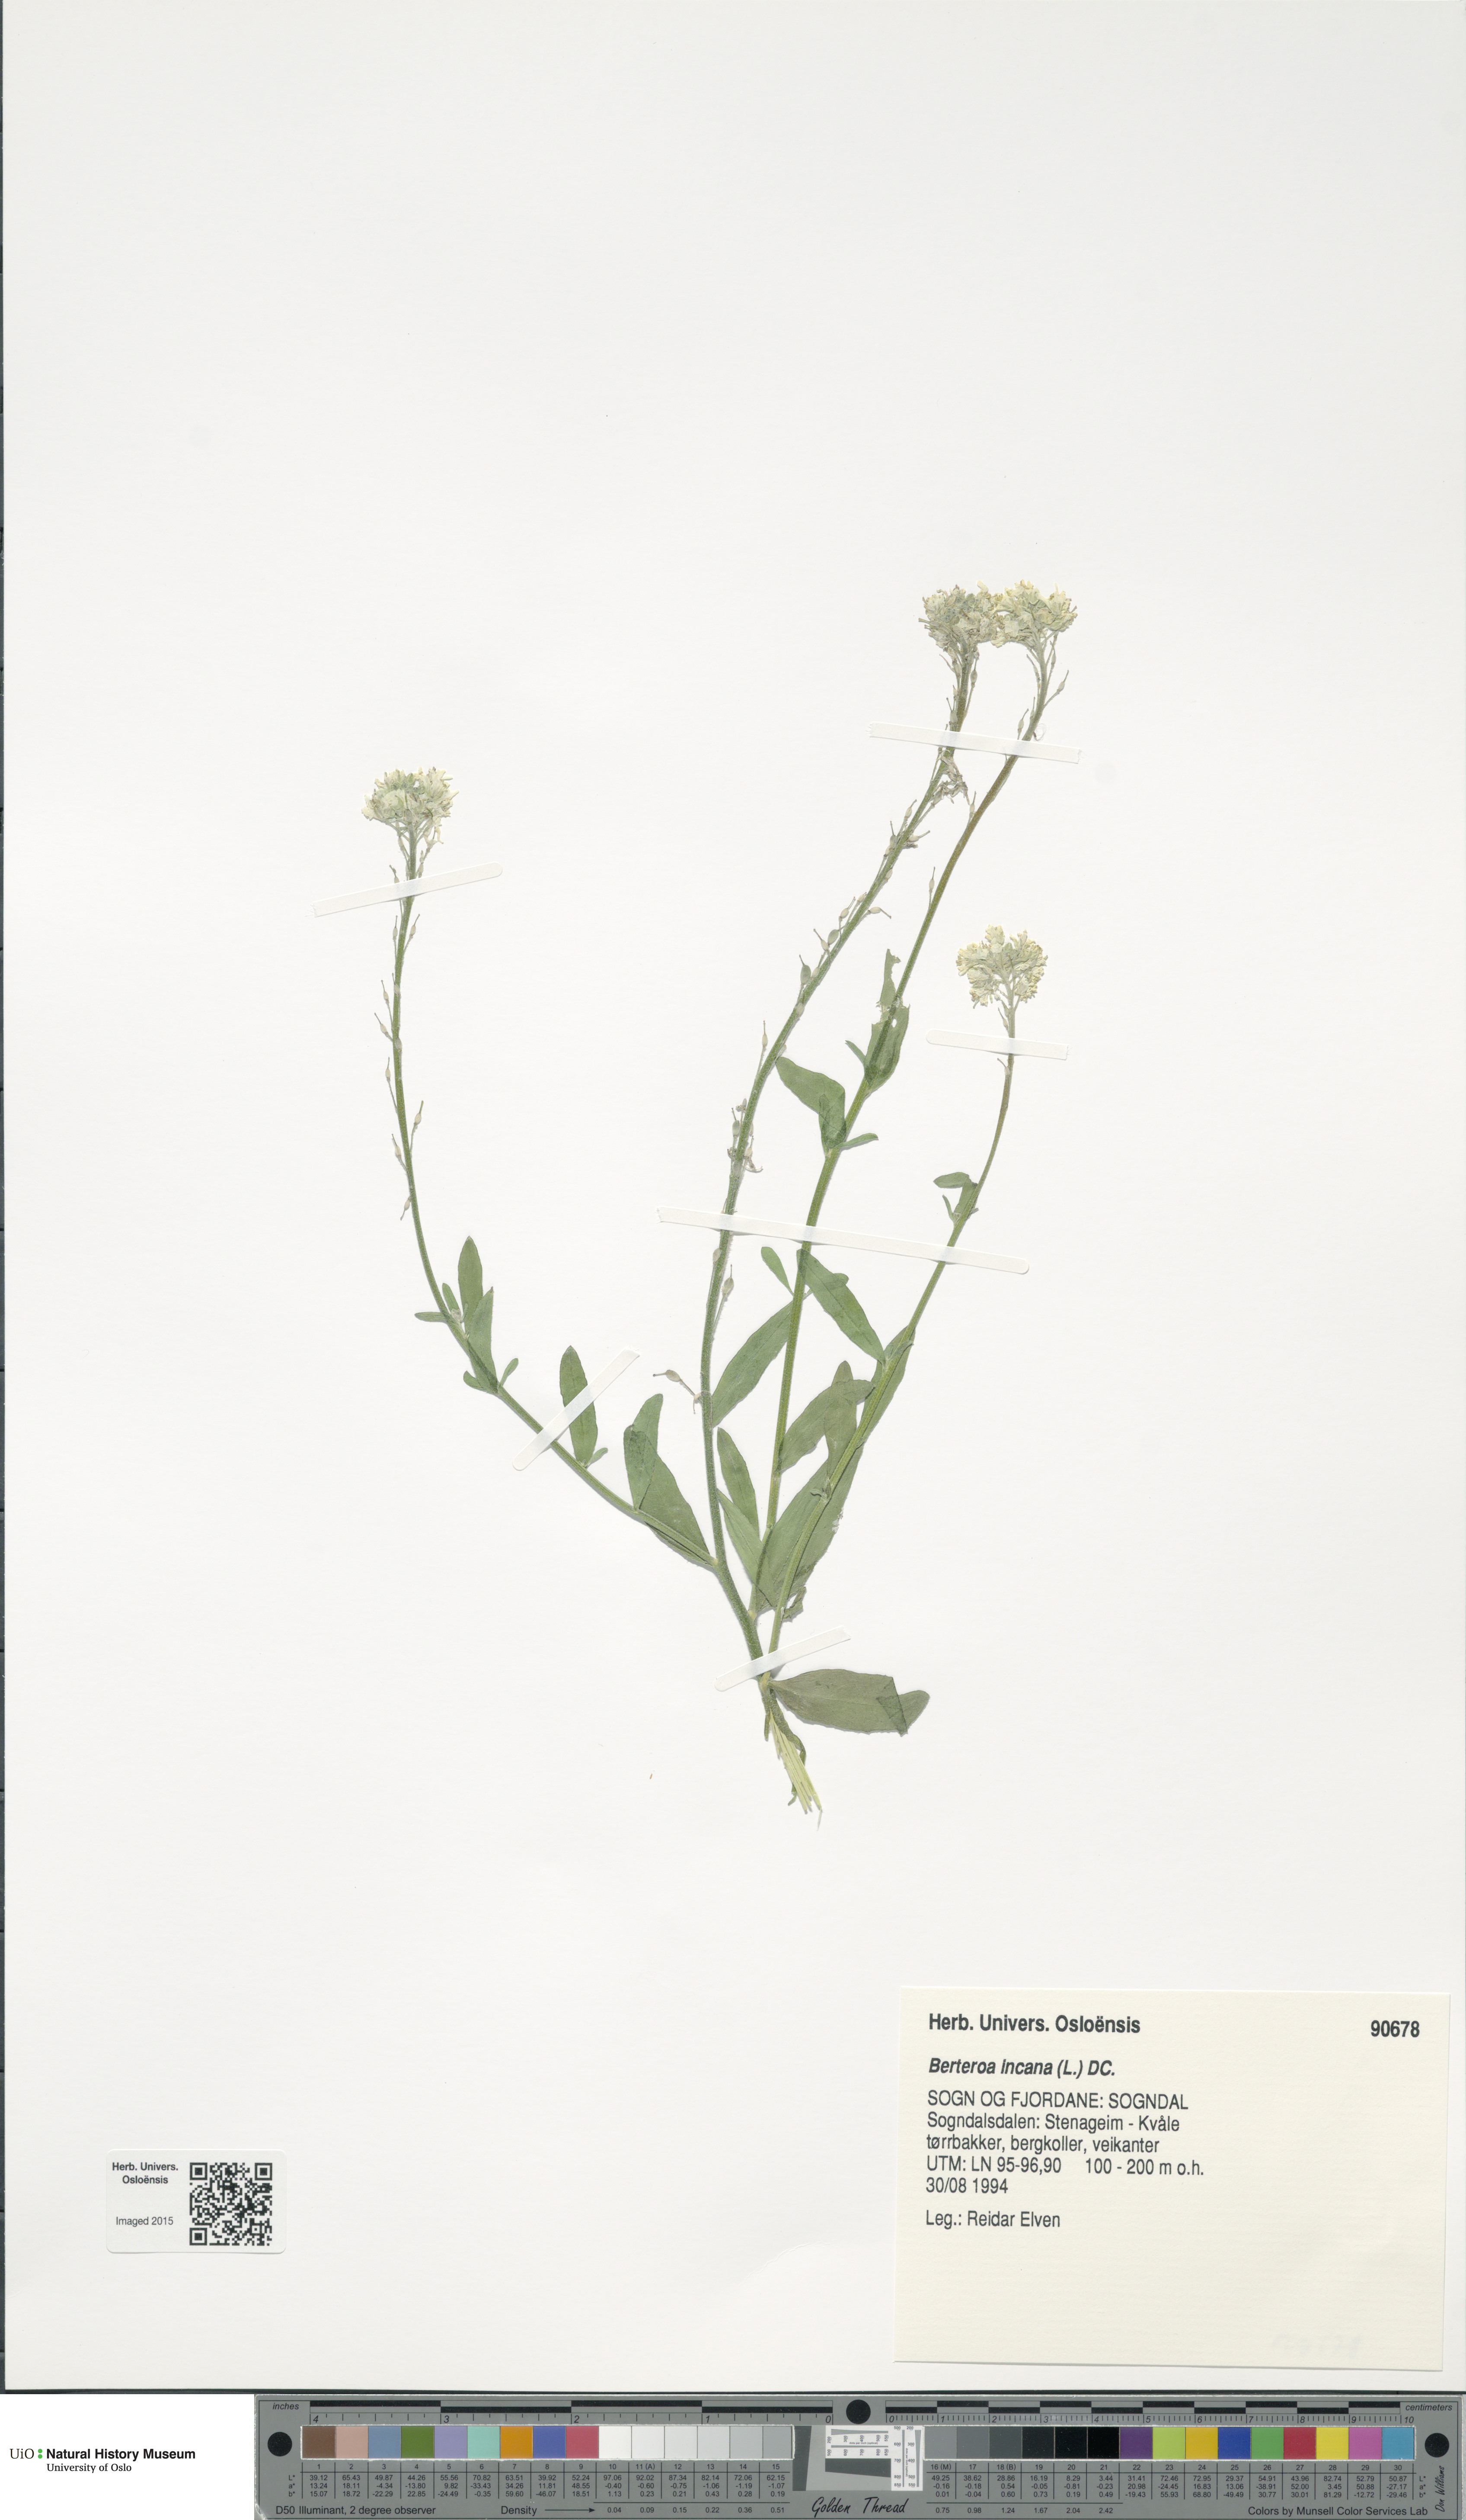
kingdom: Plantae
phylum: Tracheophyta
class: Magnoliopsida
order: Brassicales
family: Brassicaceae
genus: Berteroa
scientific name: Berteroa incana
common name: Hoary alison
